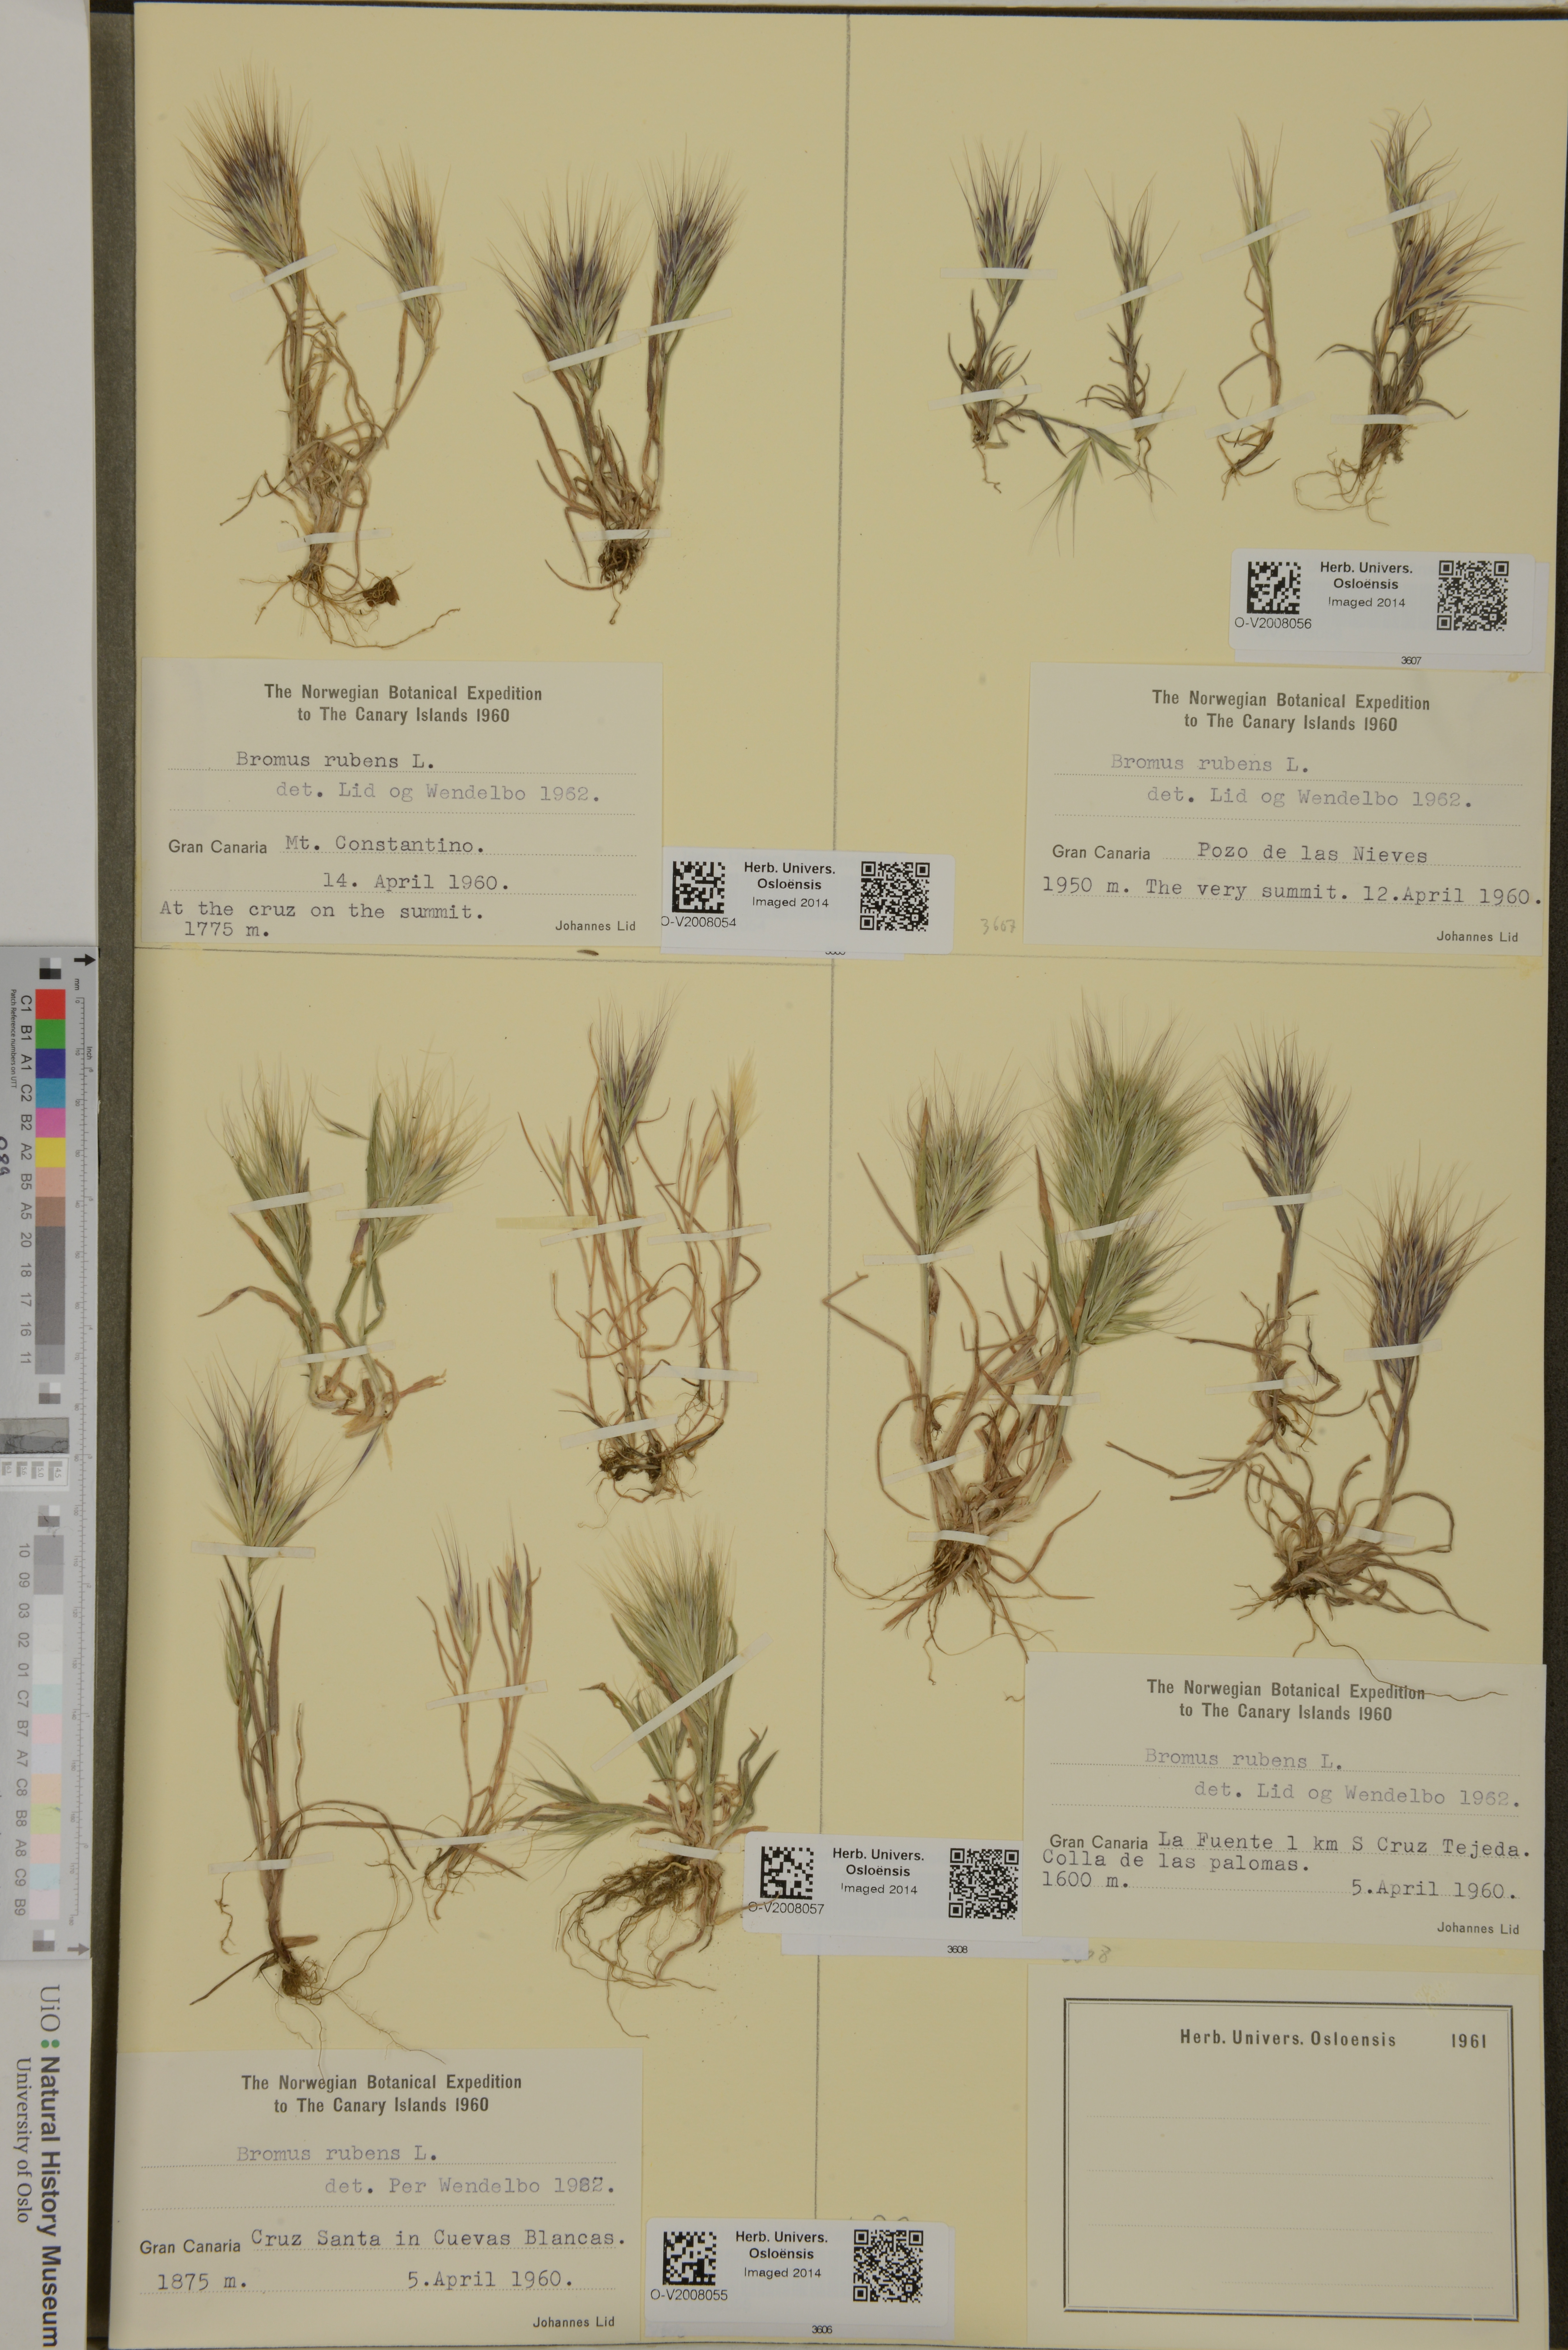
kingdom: Plantae
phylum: Tracheophyta
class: Liliopsida
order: Poales
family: Poaceae
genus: Bromus
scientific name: Bromus rubens
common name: Red brome
